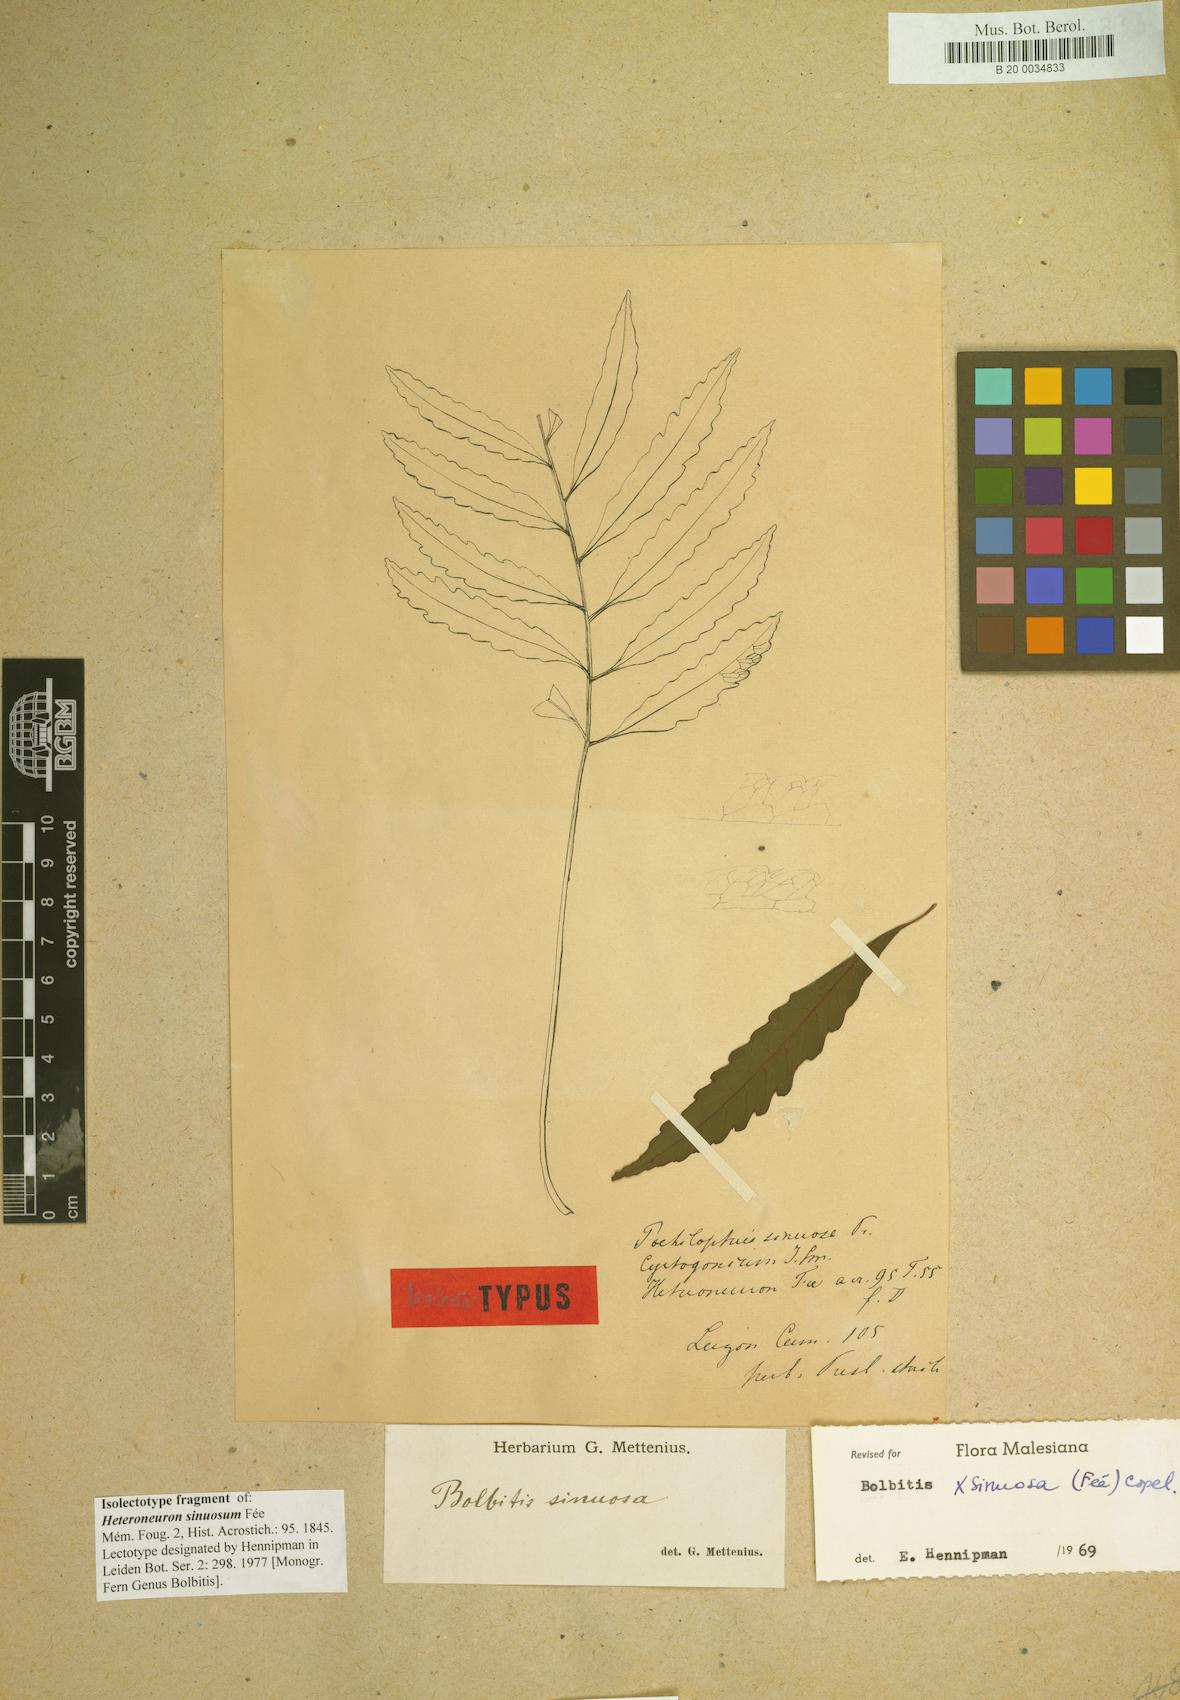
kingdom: Plantae
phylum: Tracheophyta
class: Polypodiopsida
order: Polypodiales
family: Dryopteridaceae
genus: Bolbitis
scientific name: Bolbitis sinuosa
